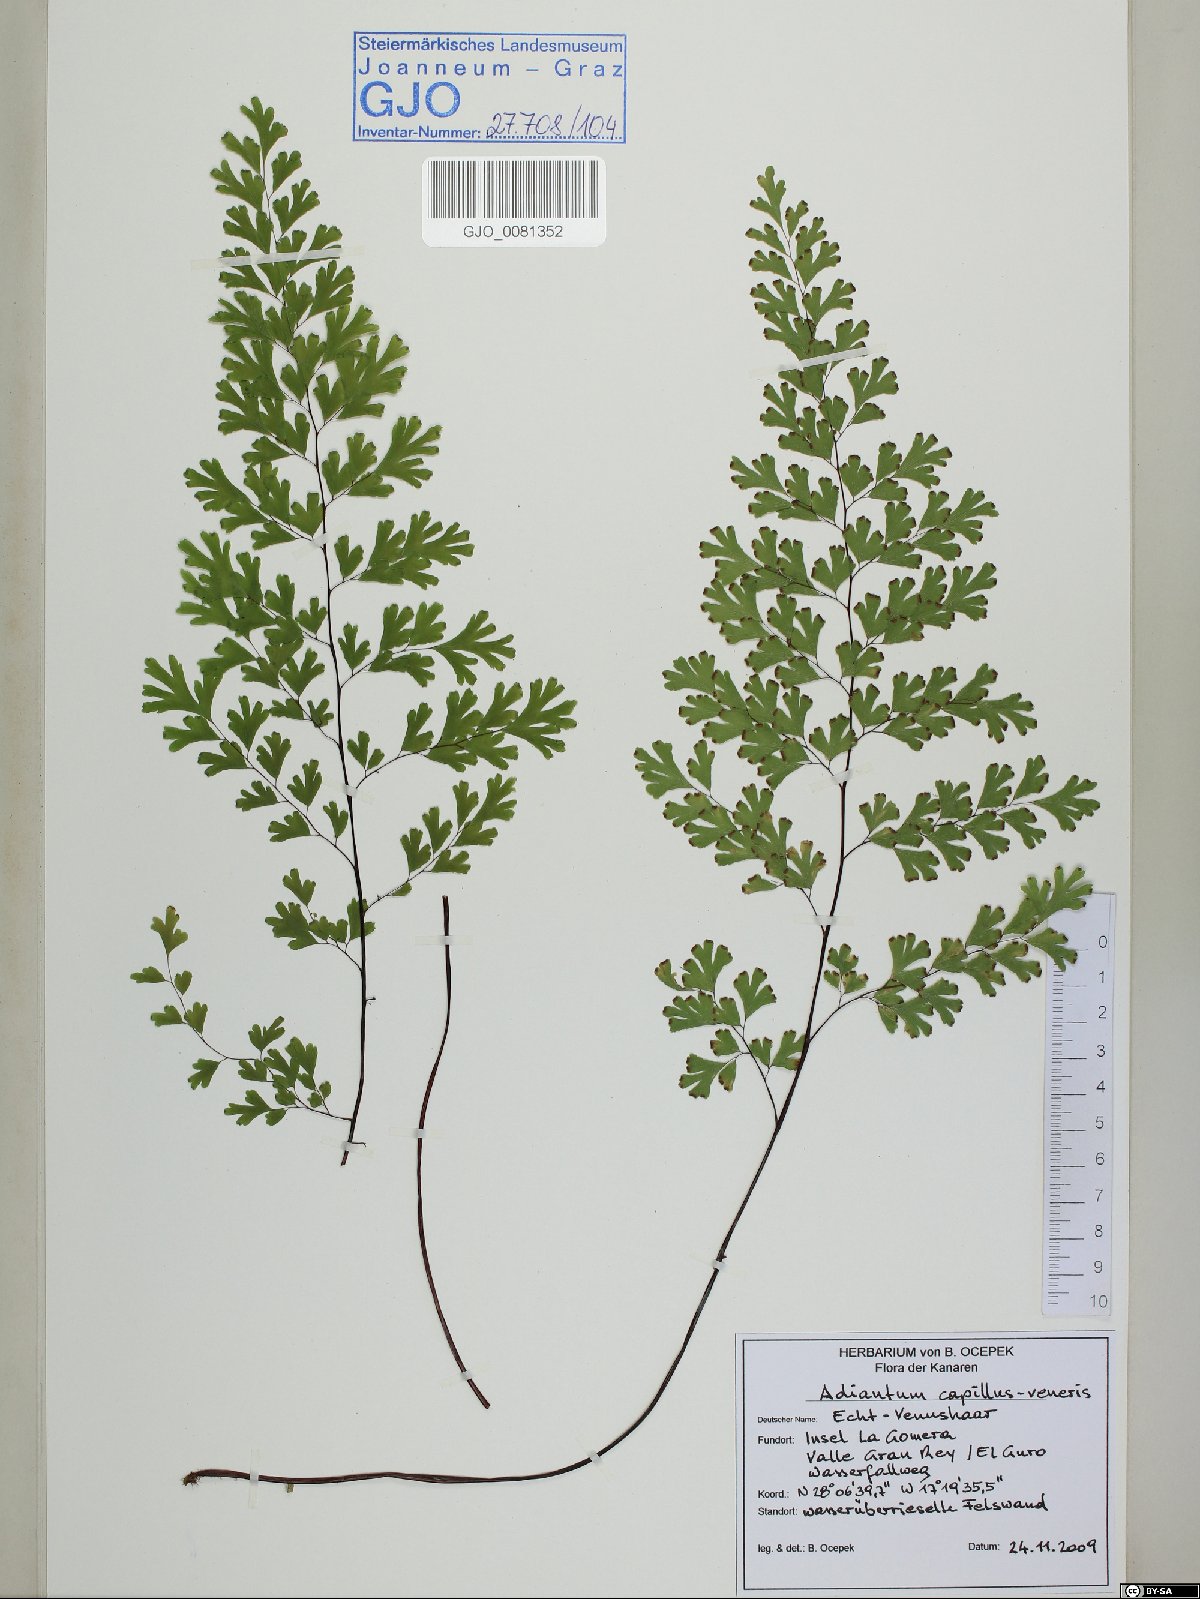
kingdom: Plantae
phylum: Tracheophyta
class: Polypodiopsida
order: Polypodiales
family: Pteridaceae
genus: Adiantum
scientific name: Adiantum capillus-veneris
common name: Maidenhair fern
